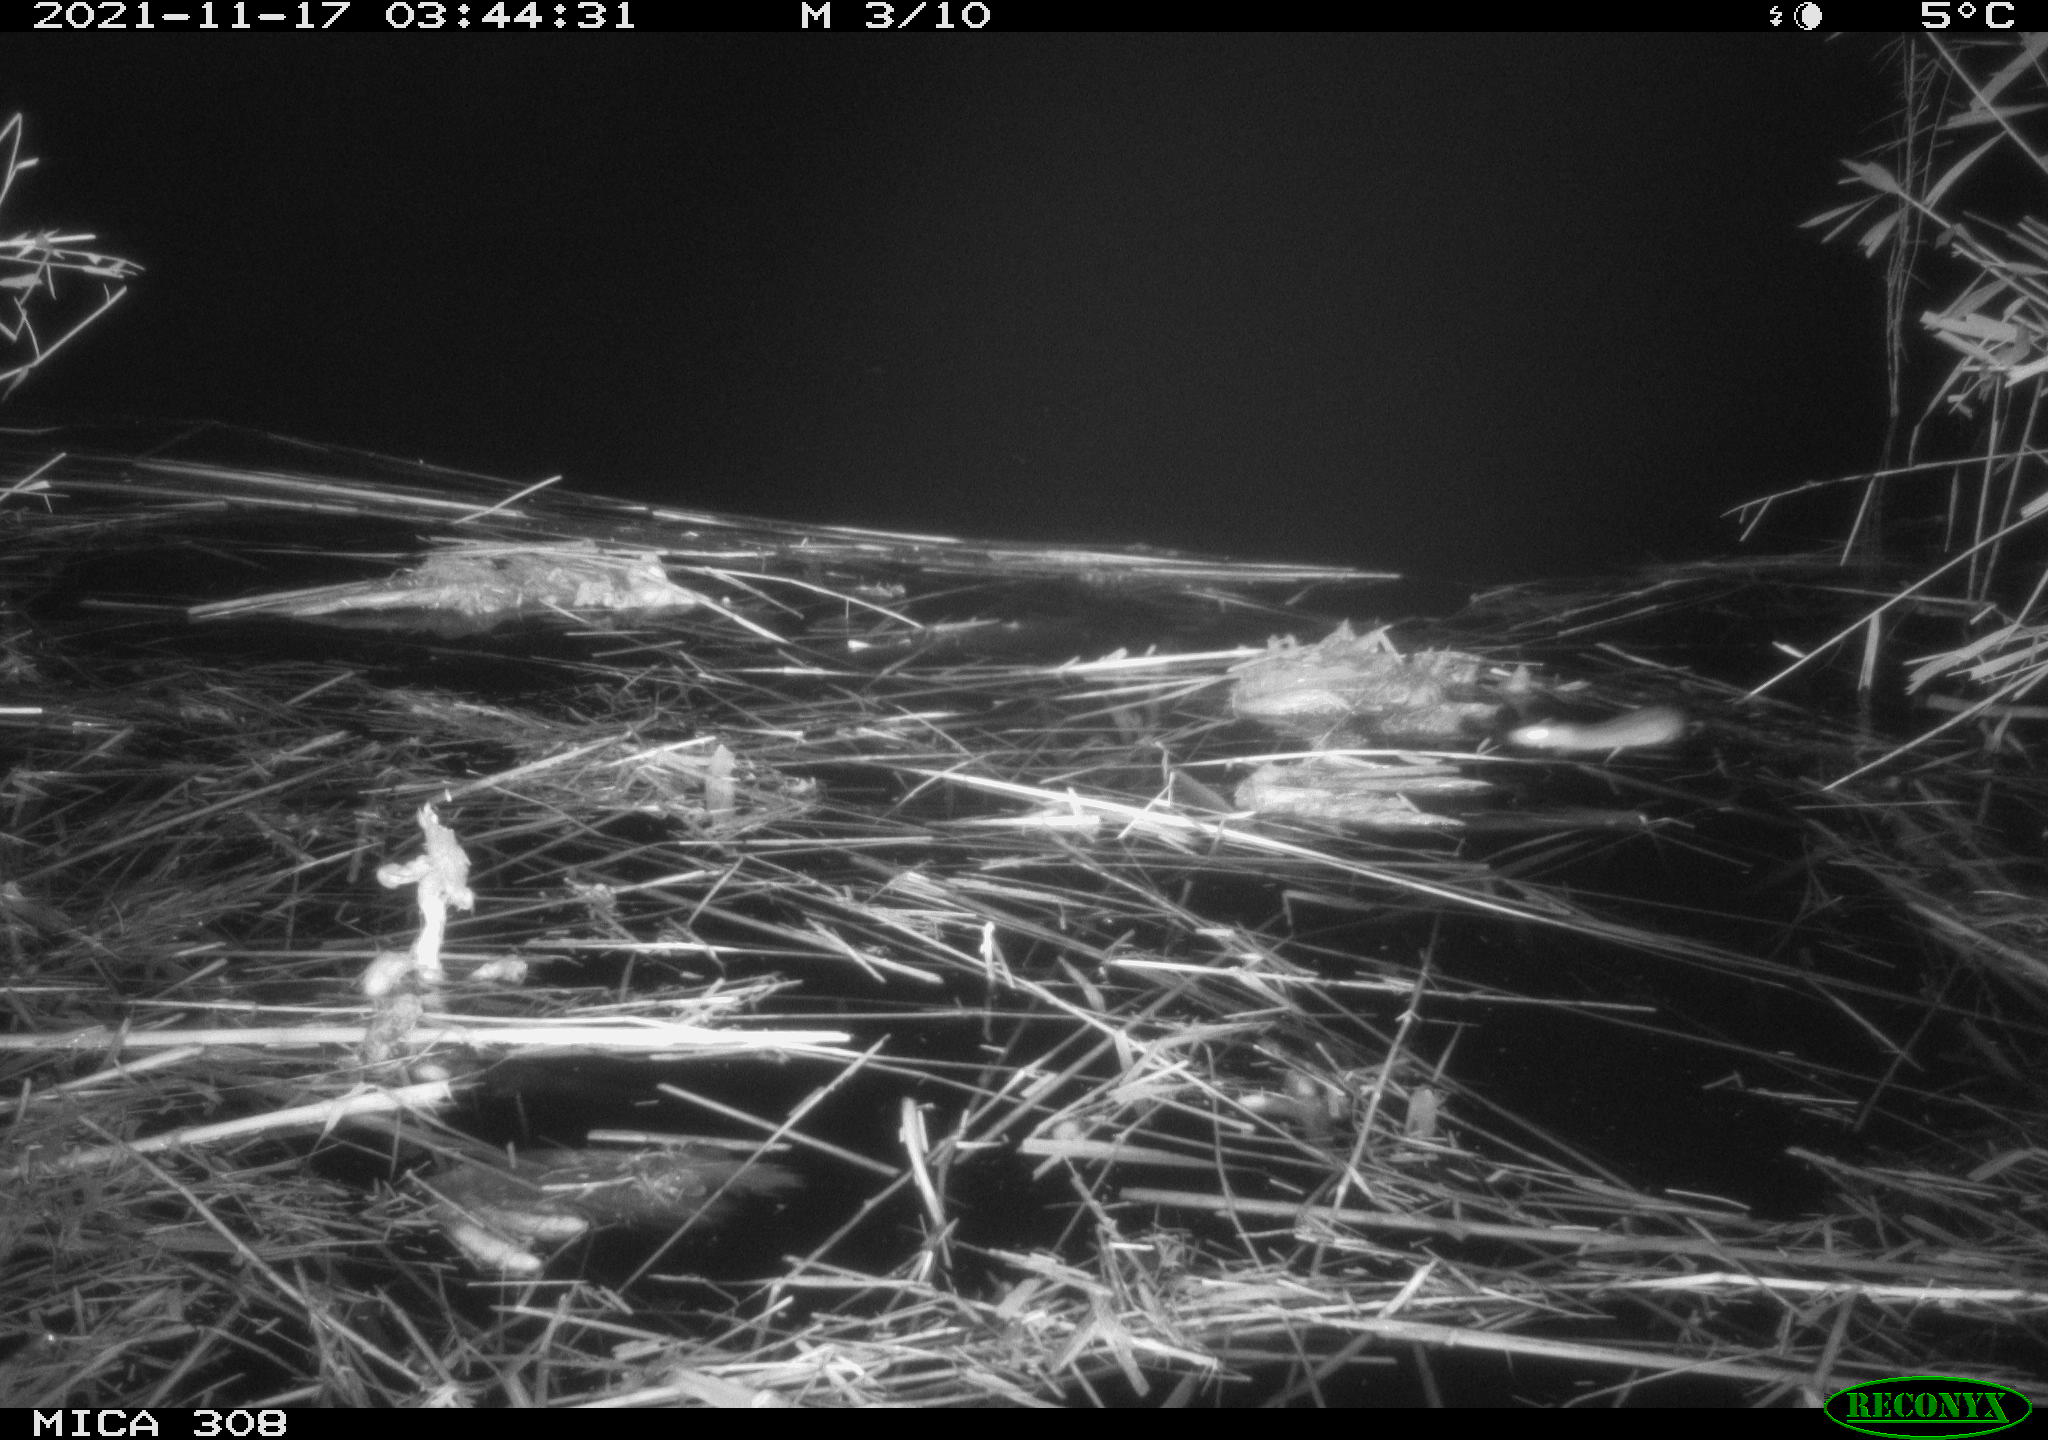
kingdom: Animalia
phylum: Chordata
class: Mammalia
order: Rodentia
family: Muridae
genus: Rattus
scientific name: Rattus norvegicus
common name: Brown rat
